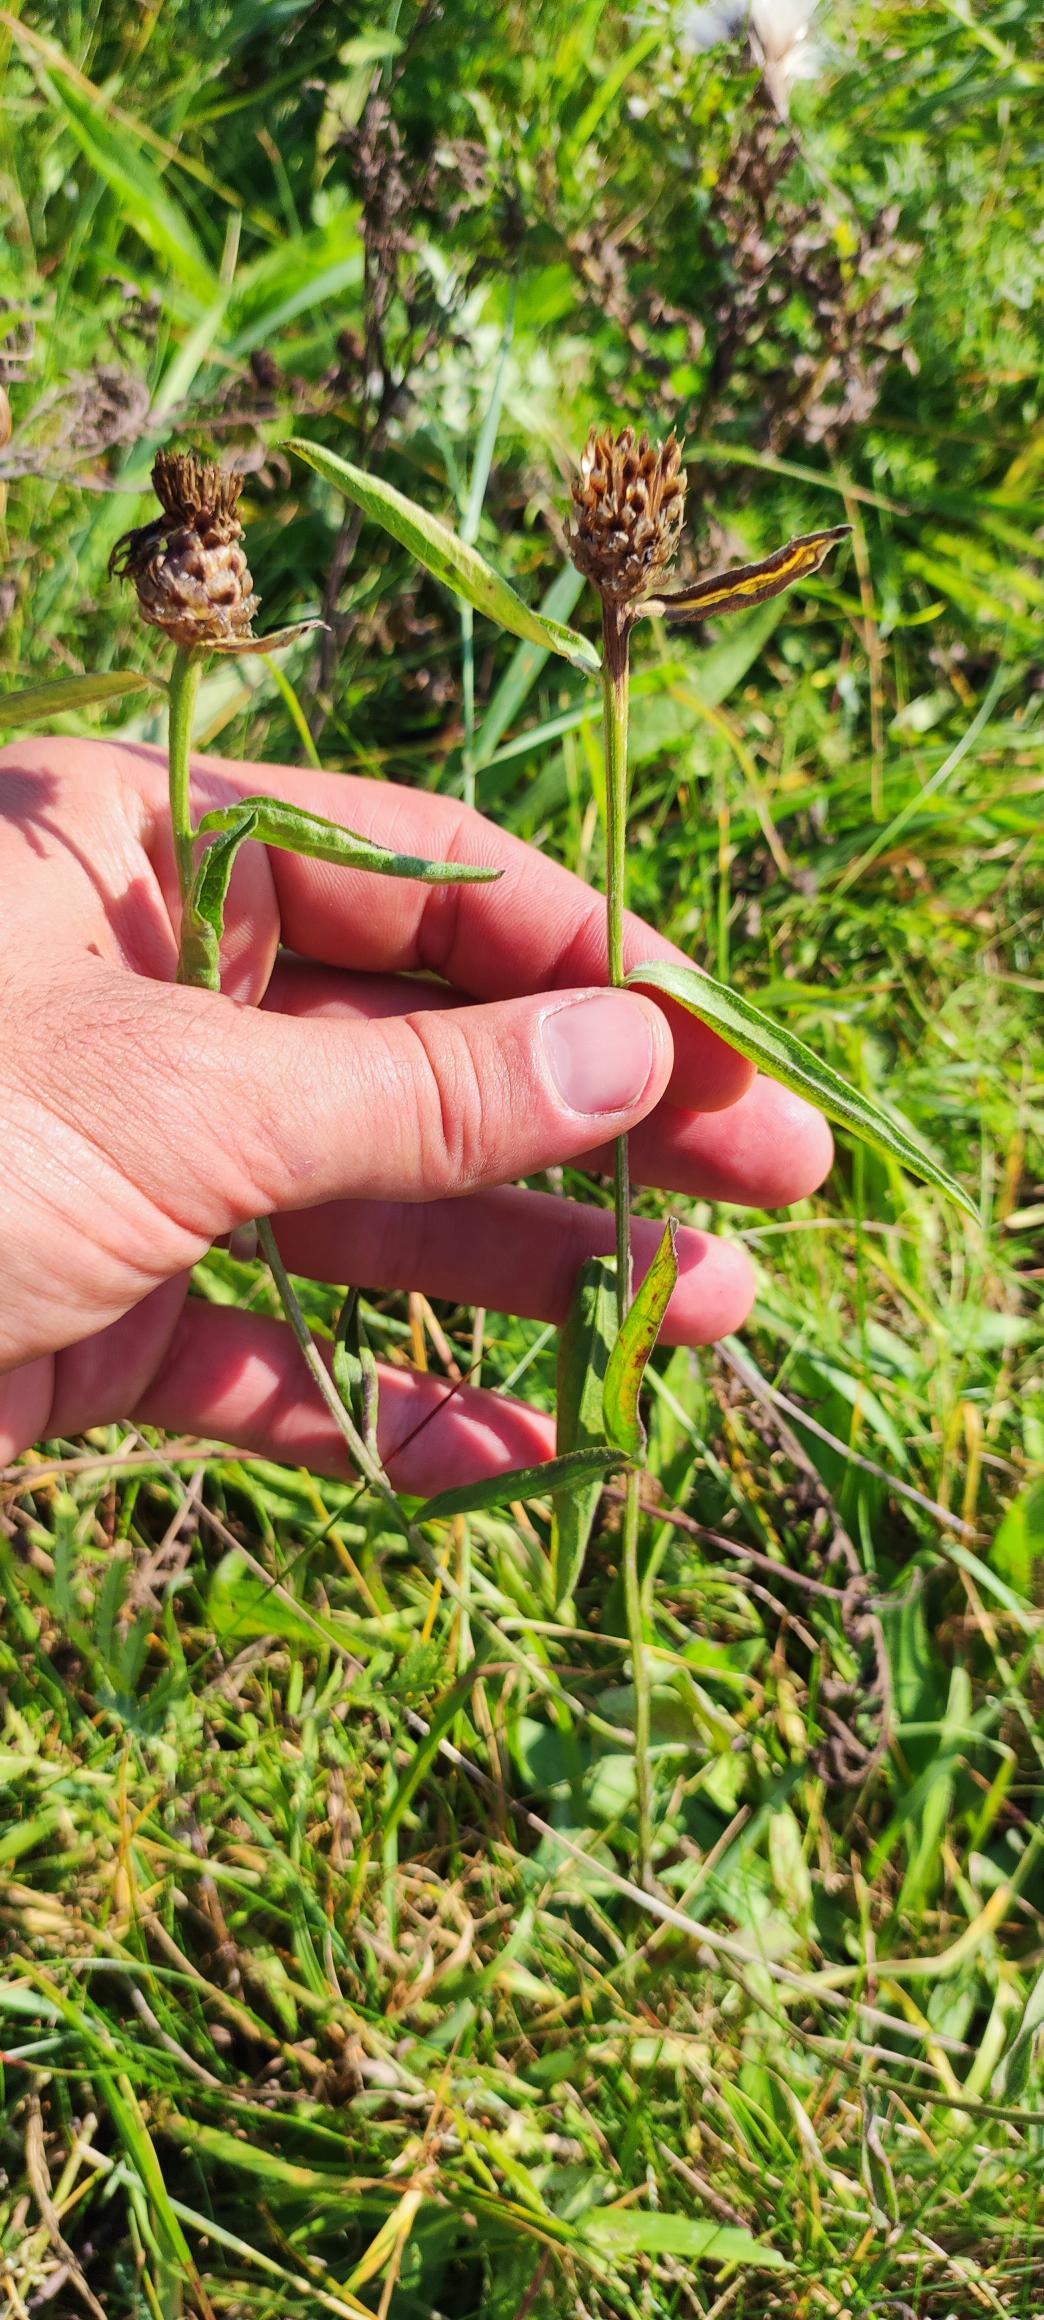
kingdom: Plantae
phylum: Tracheophyta
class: Magnoliopsida
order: Asterales
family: Asteraceae
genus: Centaurea
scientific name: Centaurea jacea
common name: Almindelig knopurt
